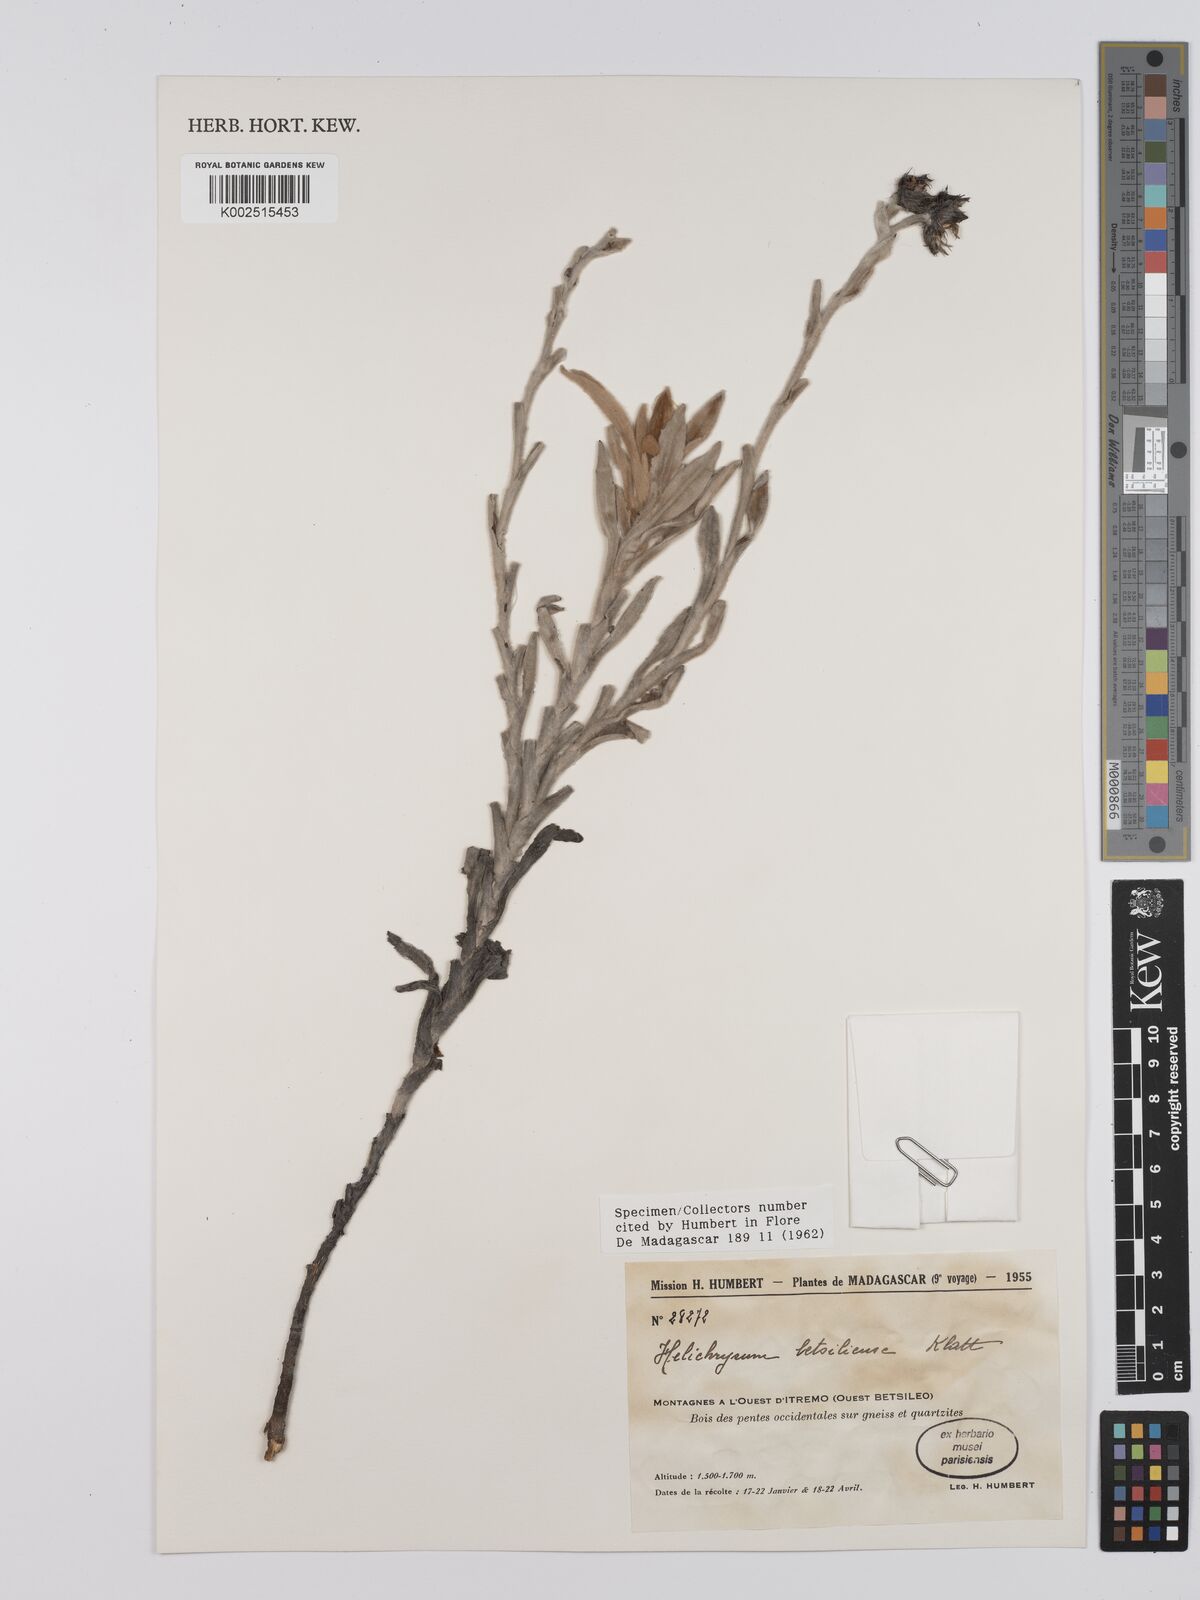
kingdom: Plantae
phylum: Tracheophyta
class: Magnoliopsida
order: Asterales
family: Asteraceae
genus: Helichrysum
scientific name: Helichrysum betsiliense
